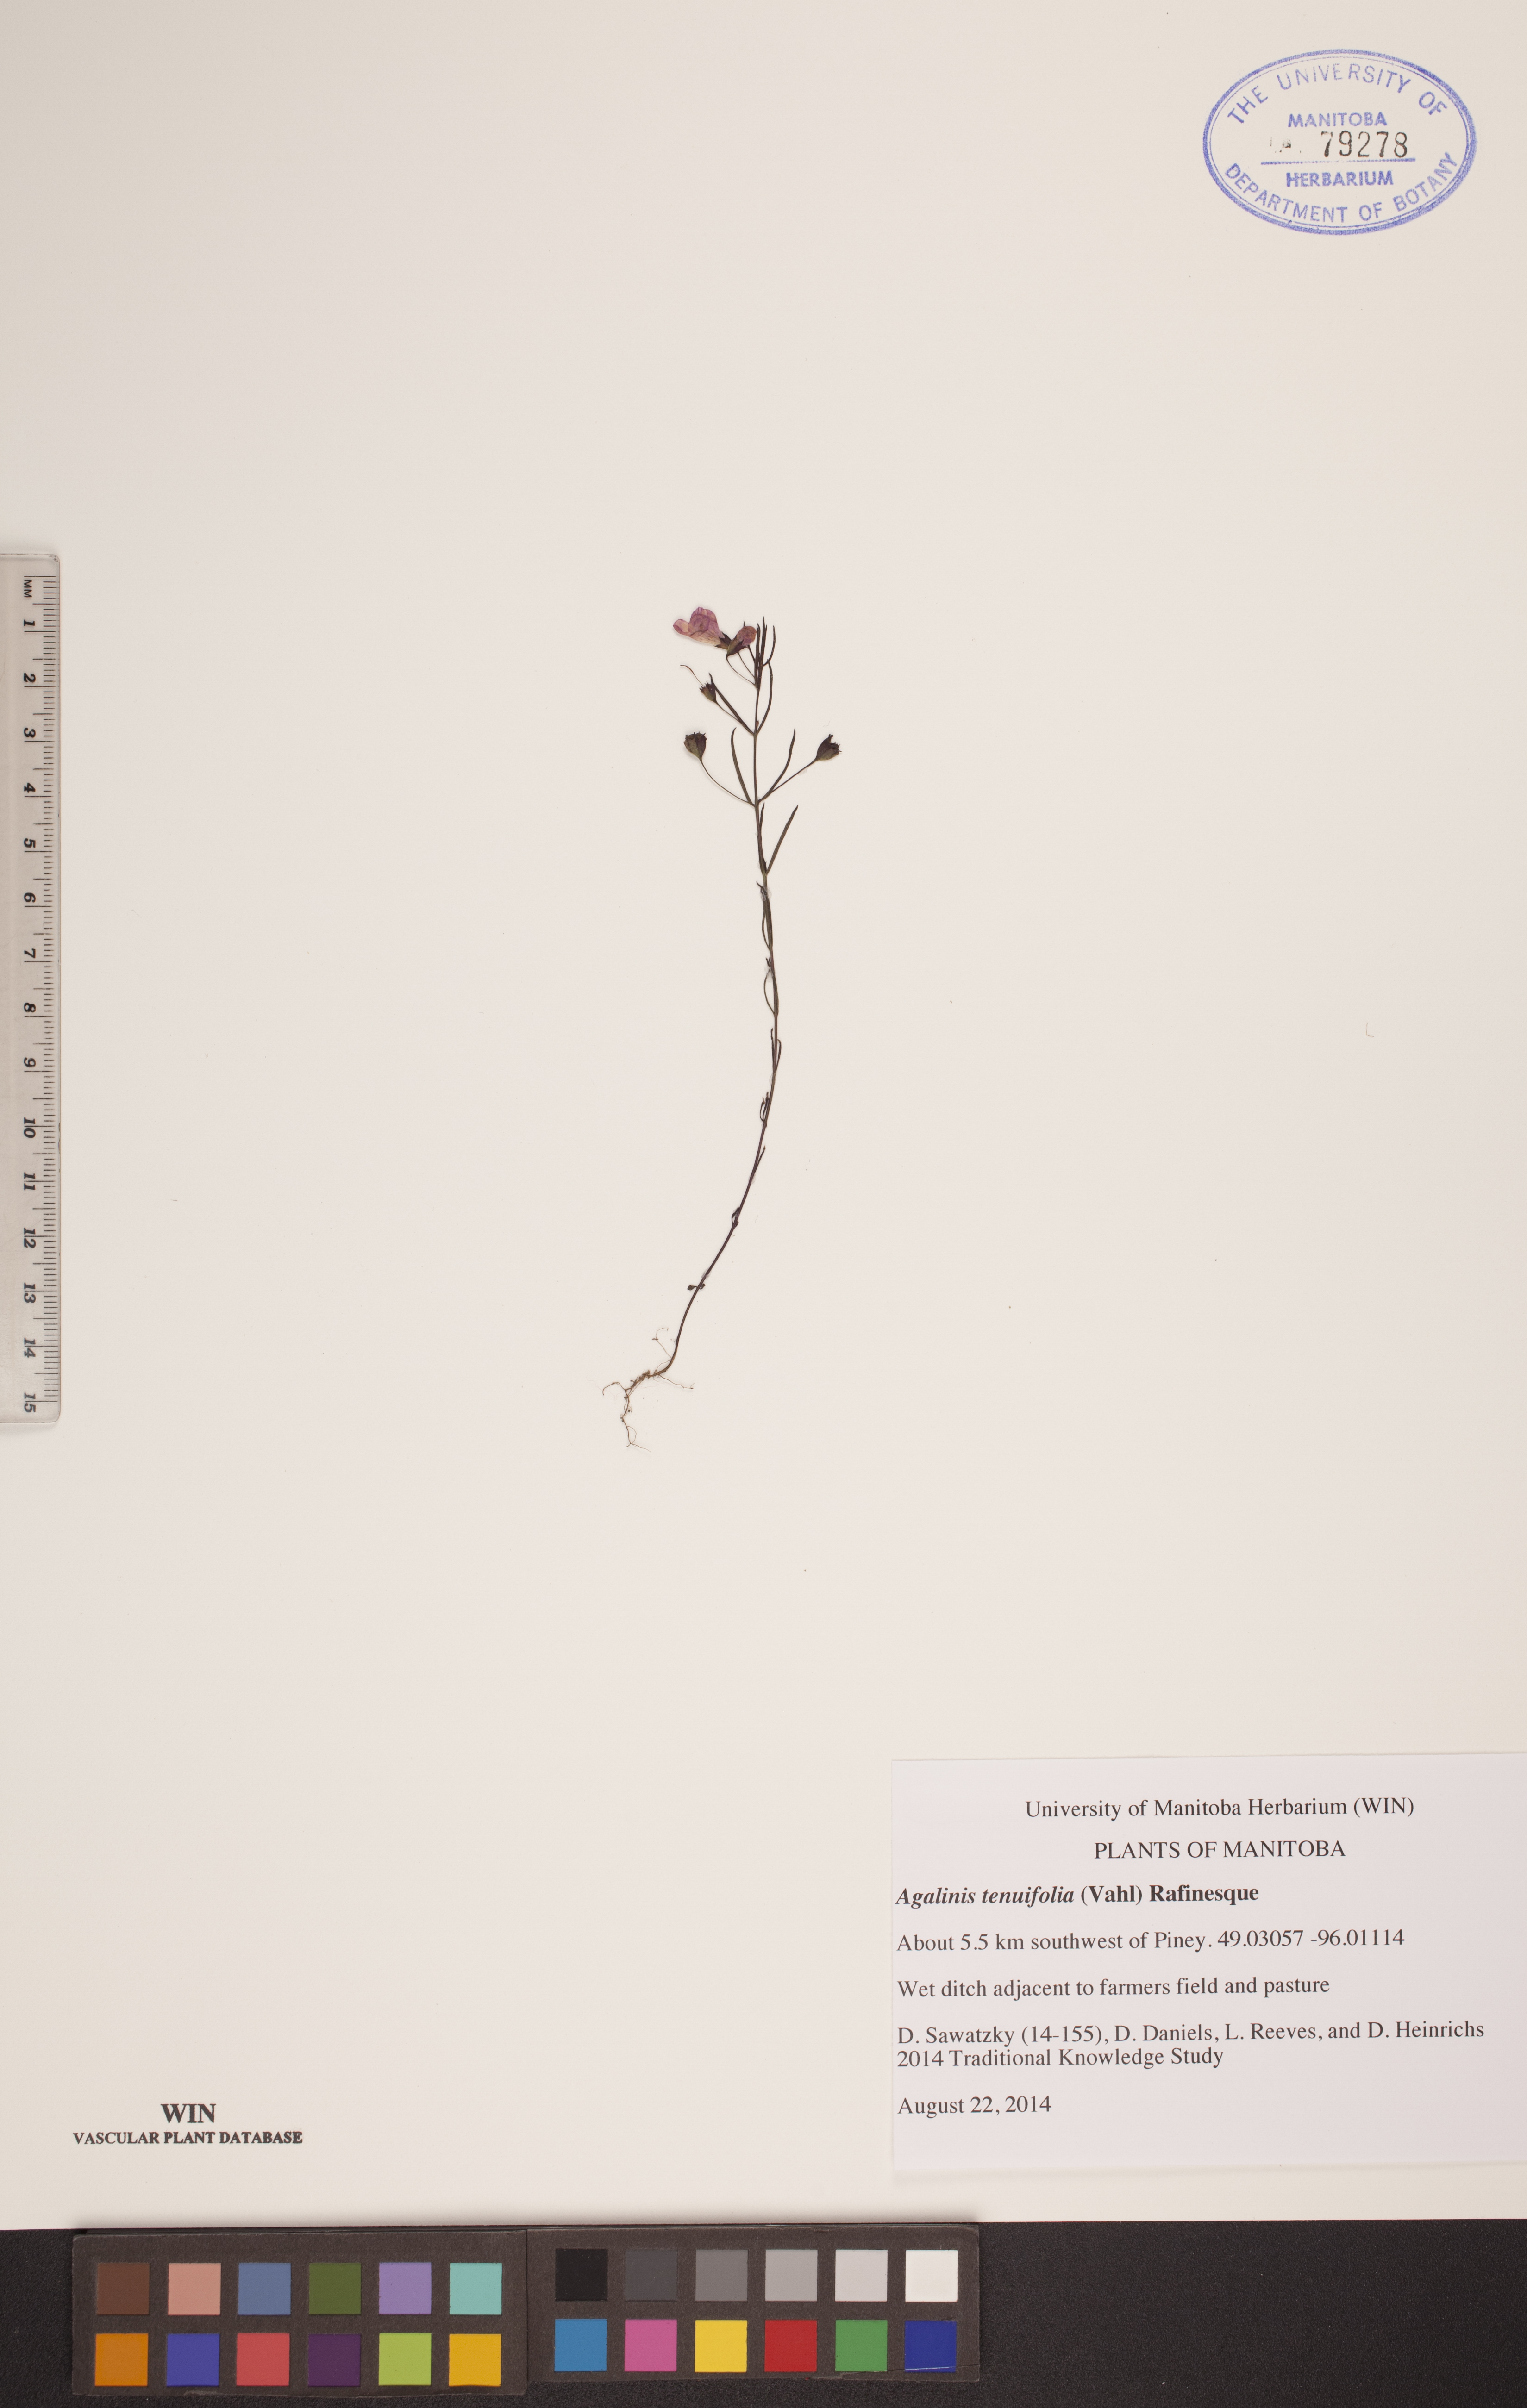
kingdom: Plantae
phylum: Tracheophyta
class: Magnoliopsida
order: Lamiales
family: Orobanchaceae
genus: Agalinis
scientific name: Agalinis tenuifolia
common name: Slender agalinis
